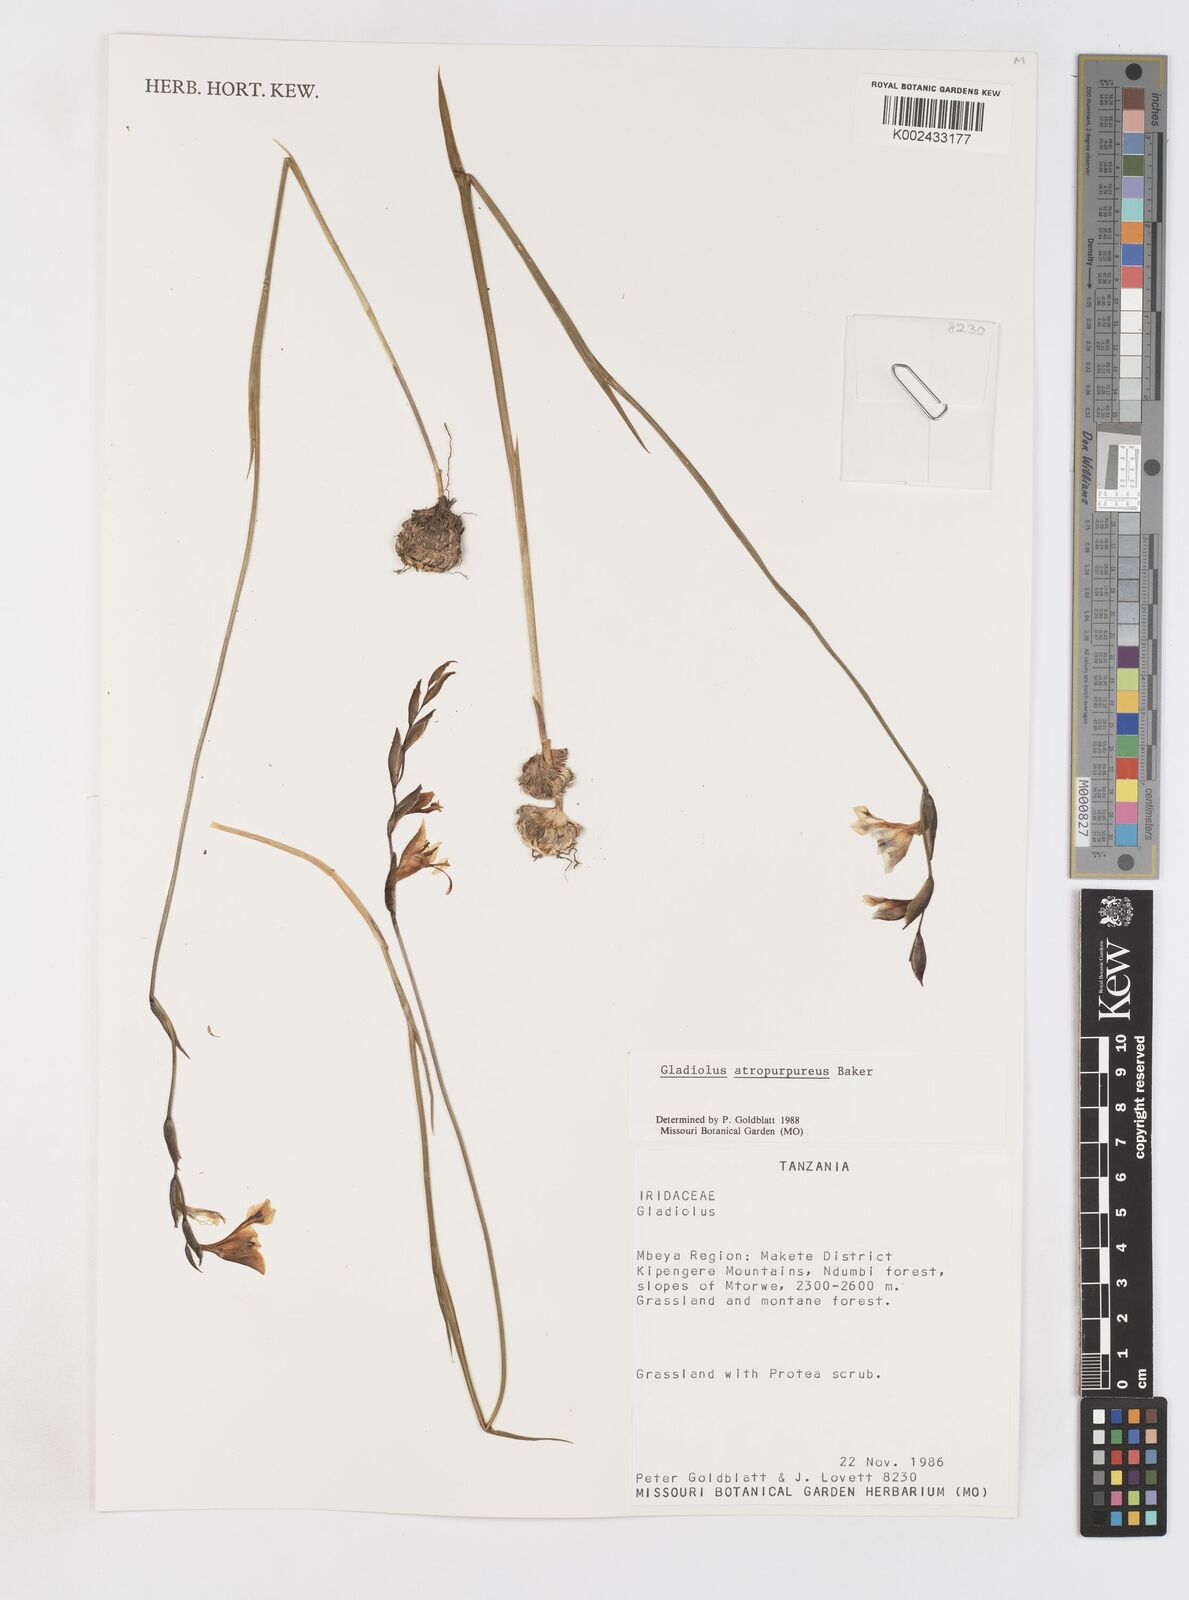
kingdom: Plantae
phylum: Tracheophyta
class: Liliopsida
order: Asparagales
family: Iridaceae
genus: Gladiolus
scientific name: Gladiolus atropurpureus
